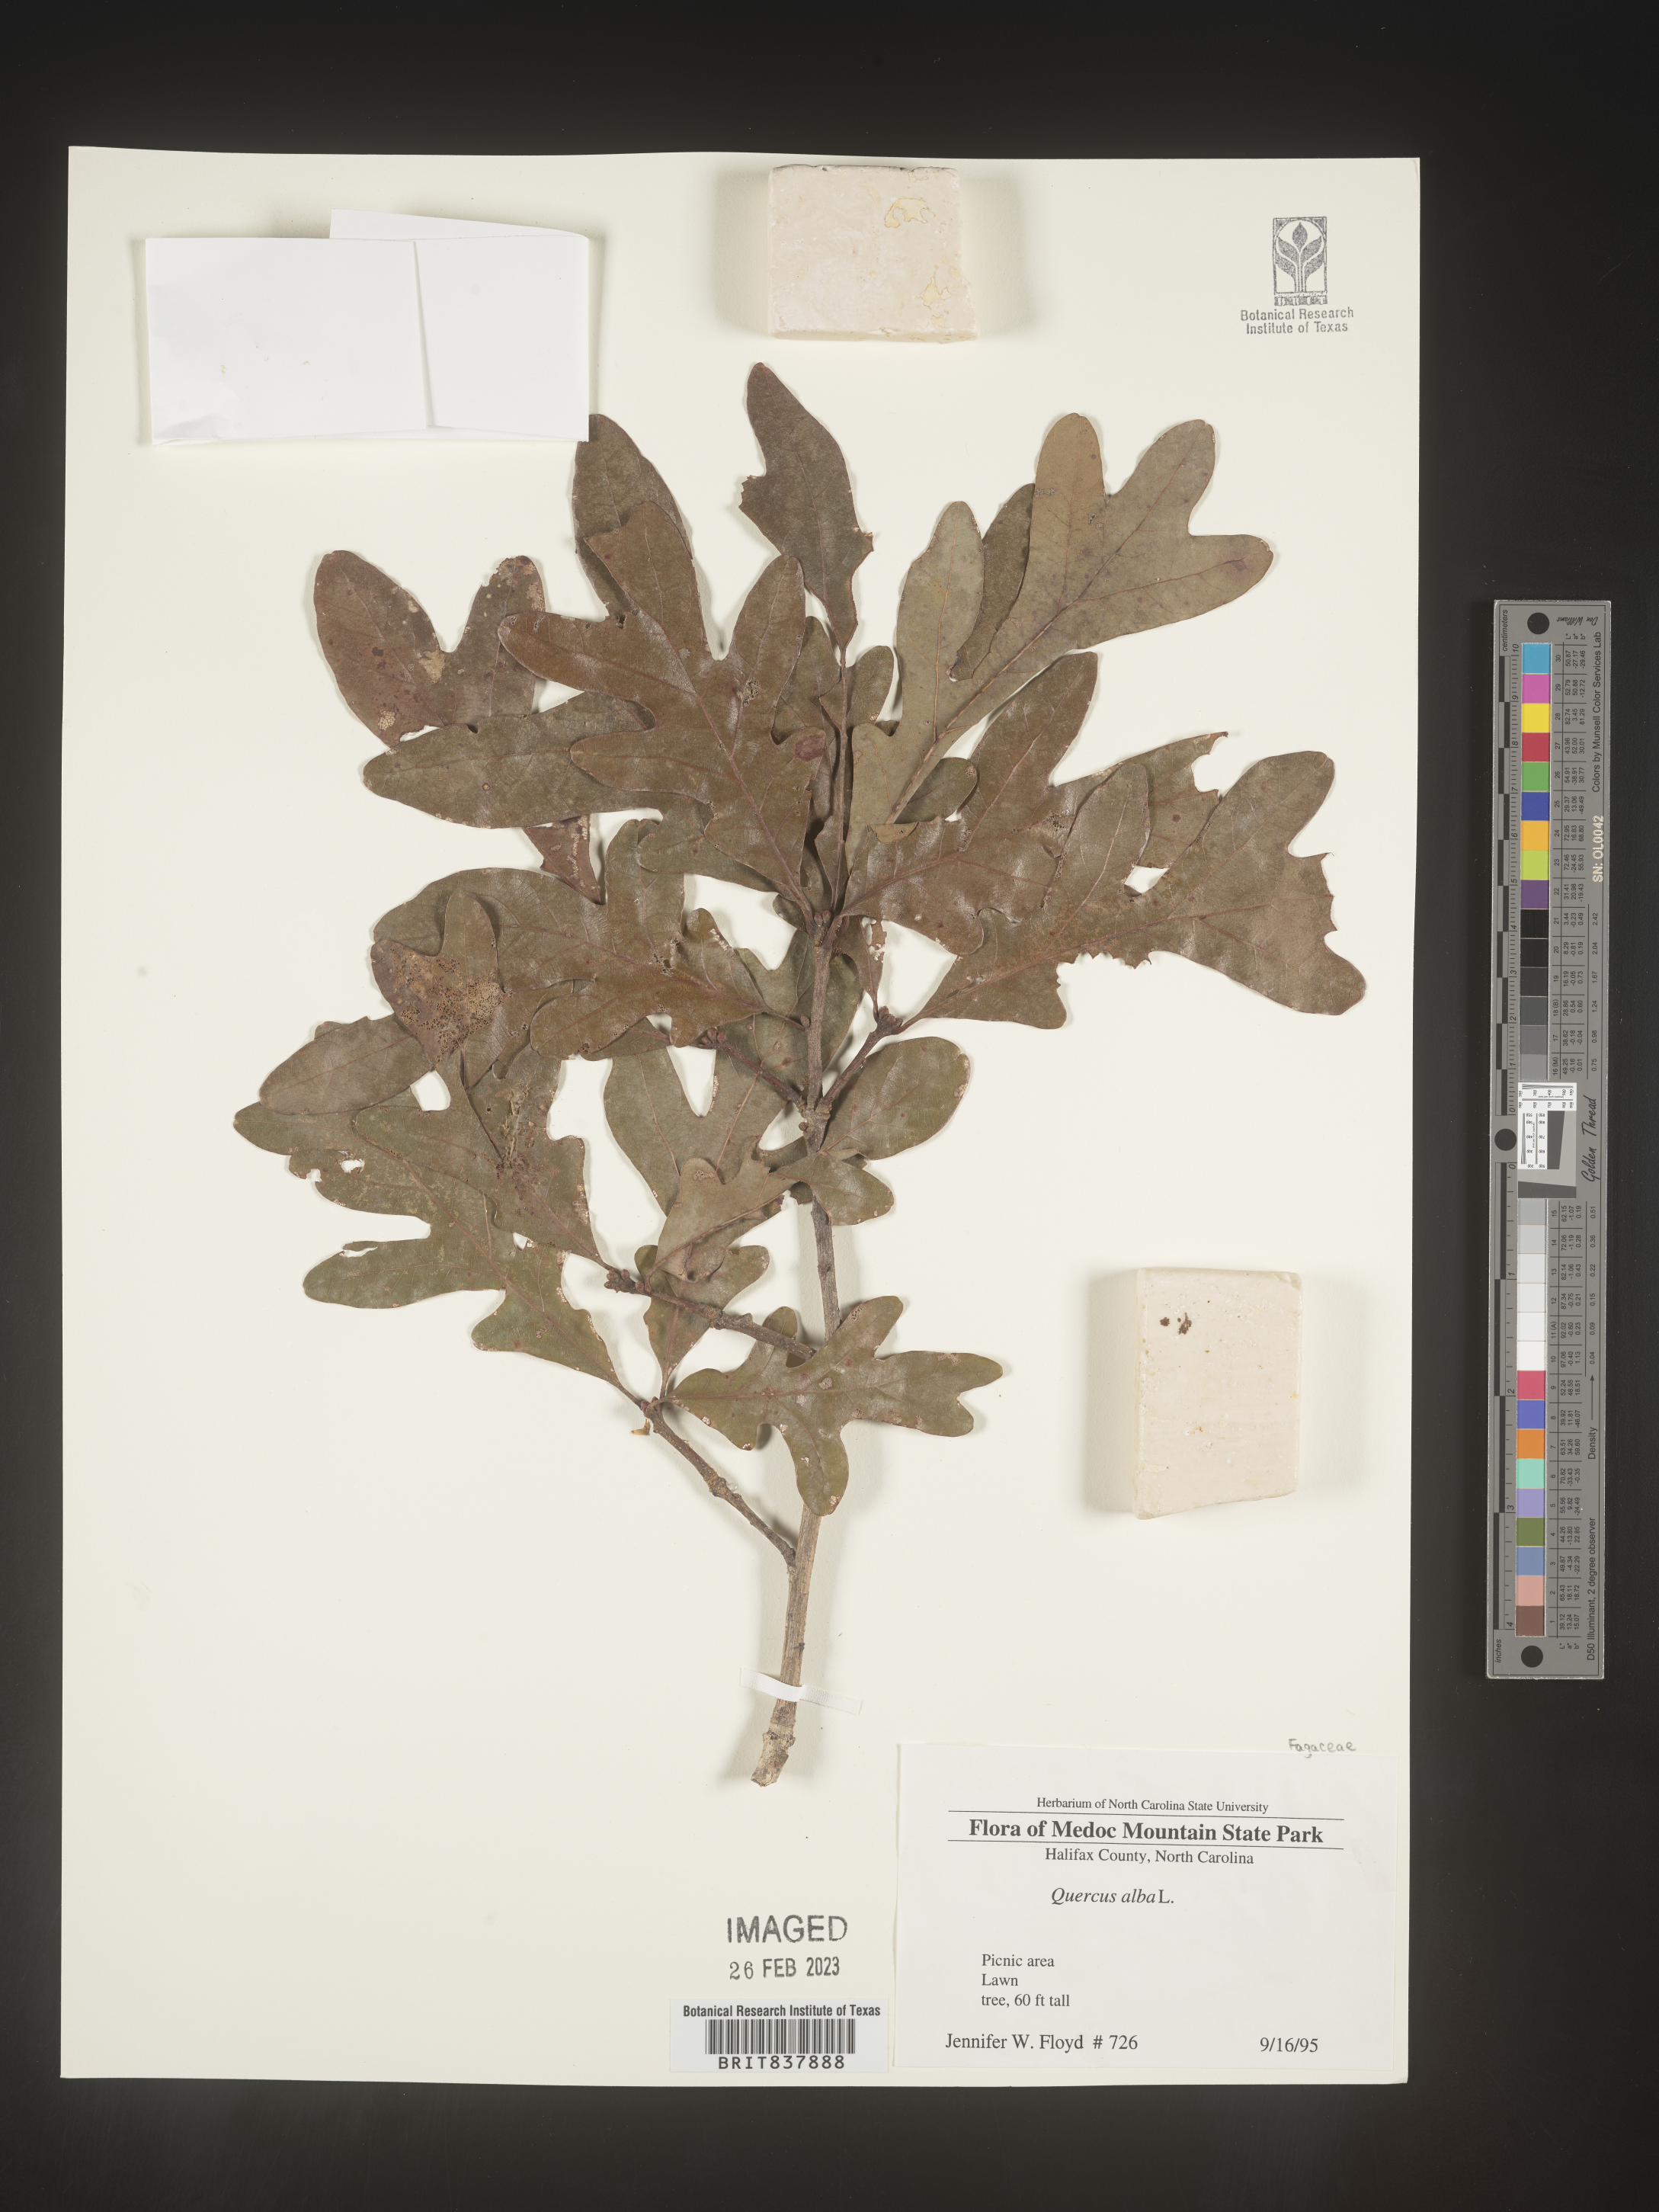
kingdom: Plantae
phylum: Tracheophyta
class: Magnoliopsida
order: Fagales
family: Fagaceae
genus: Quercus
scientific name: Quercus alba
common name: White oak
